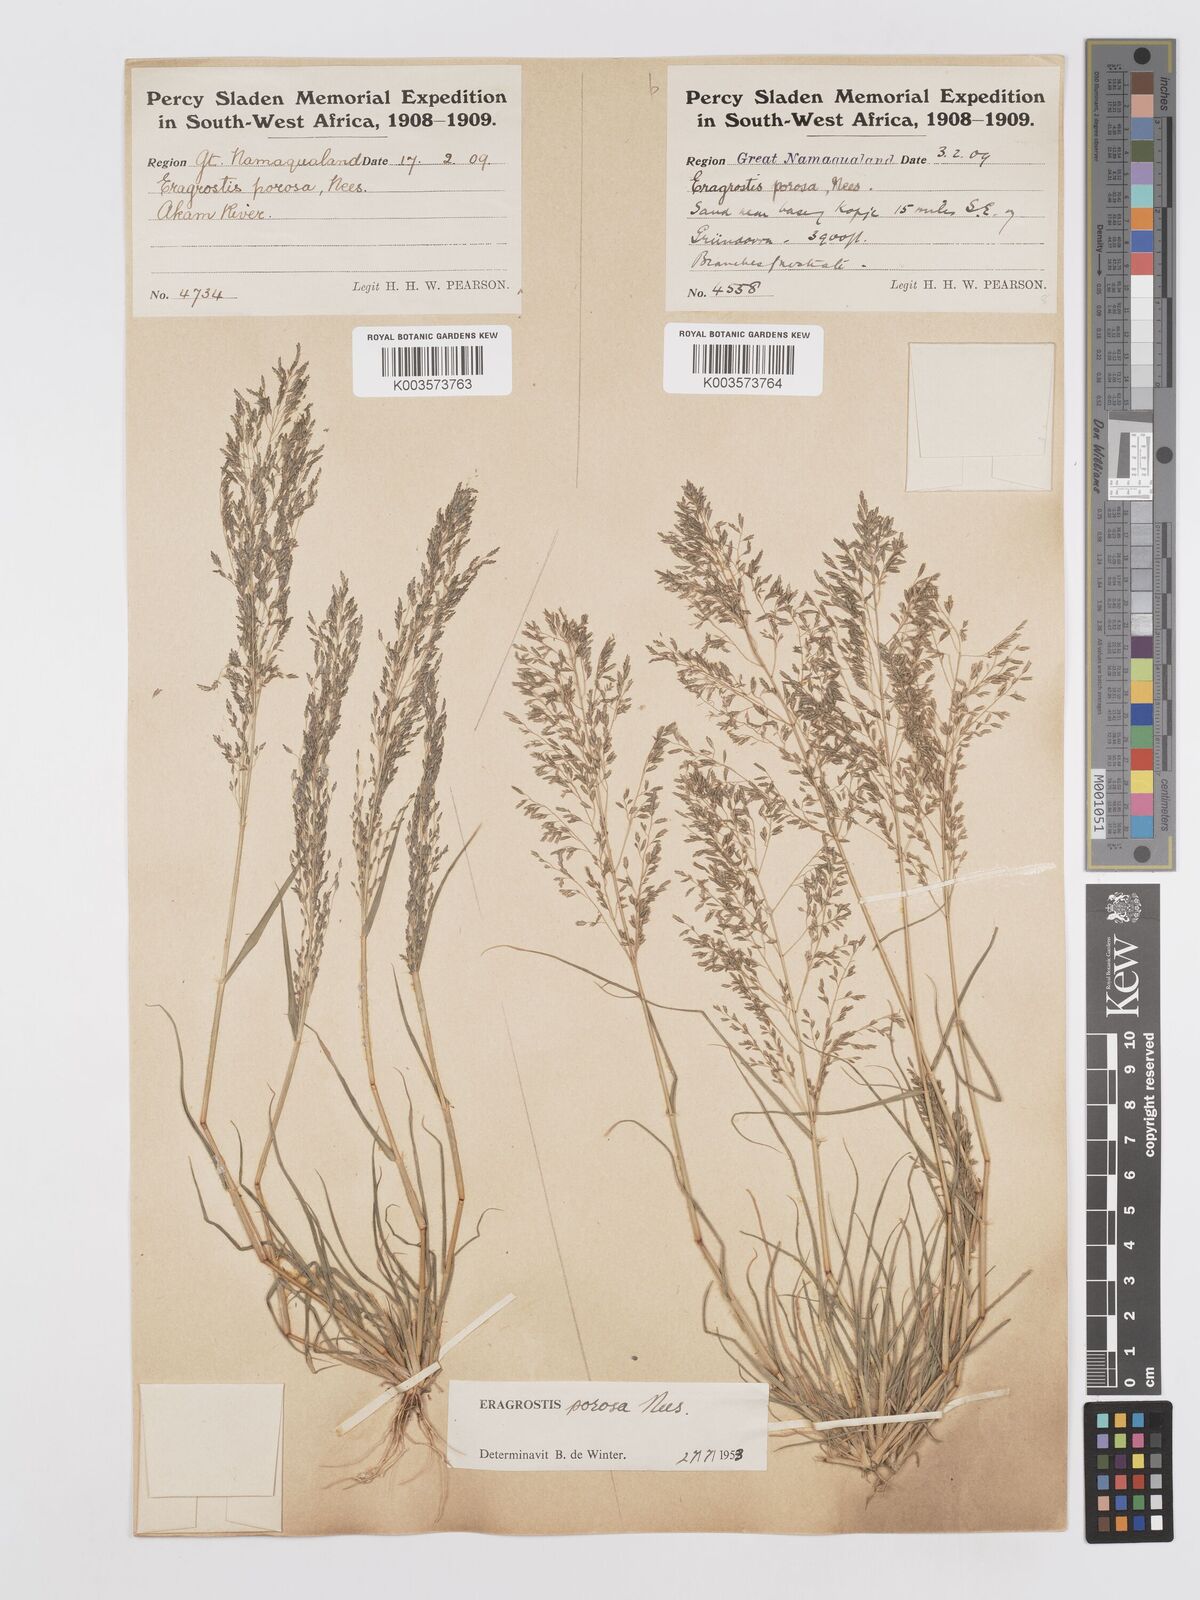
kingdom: Plantae
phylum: Tracheophyta
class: Liliopsida
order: Poales
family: Poaceae
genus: Eragrostis
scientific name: Eragrostis porosa
